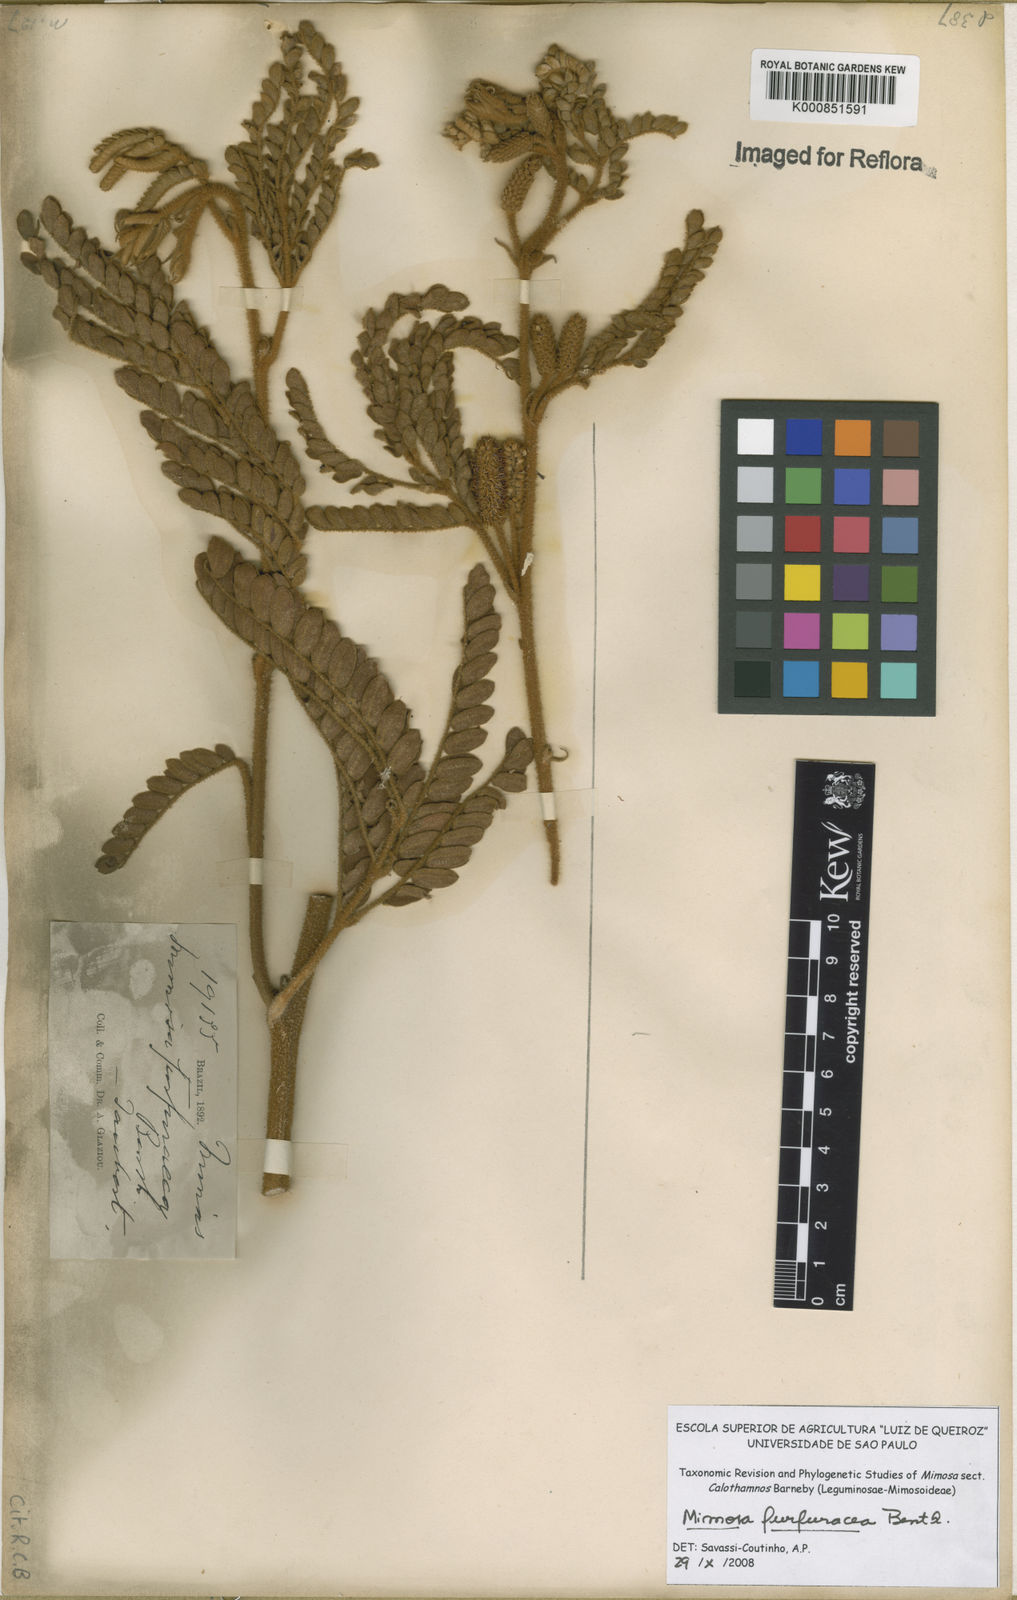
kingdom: Plantae
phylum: Tracheophyta
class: Magnoliopsida
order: Fabales
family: Fabaceae
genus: Mimosa
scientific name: Mimosa furfuracea
